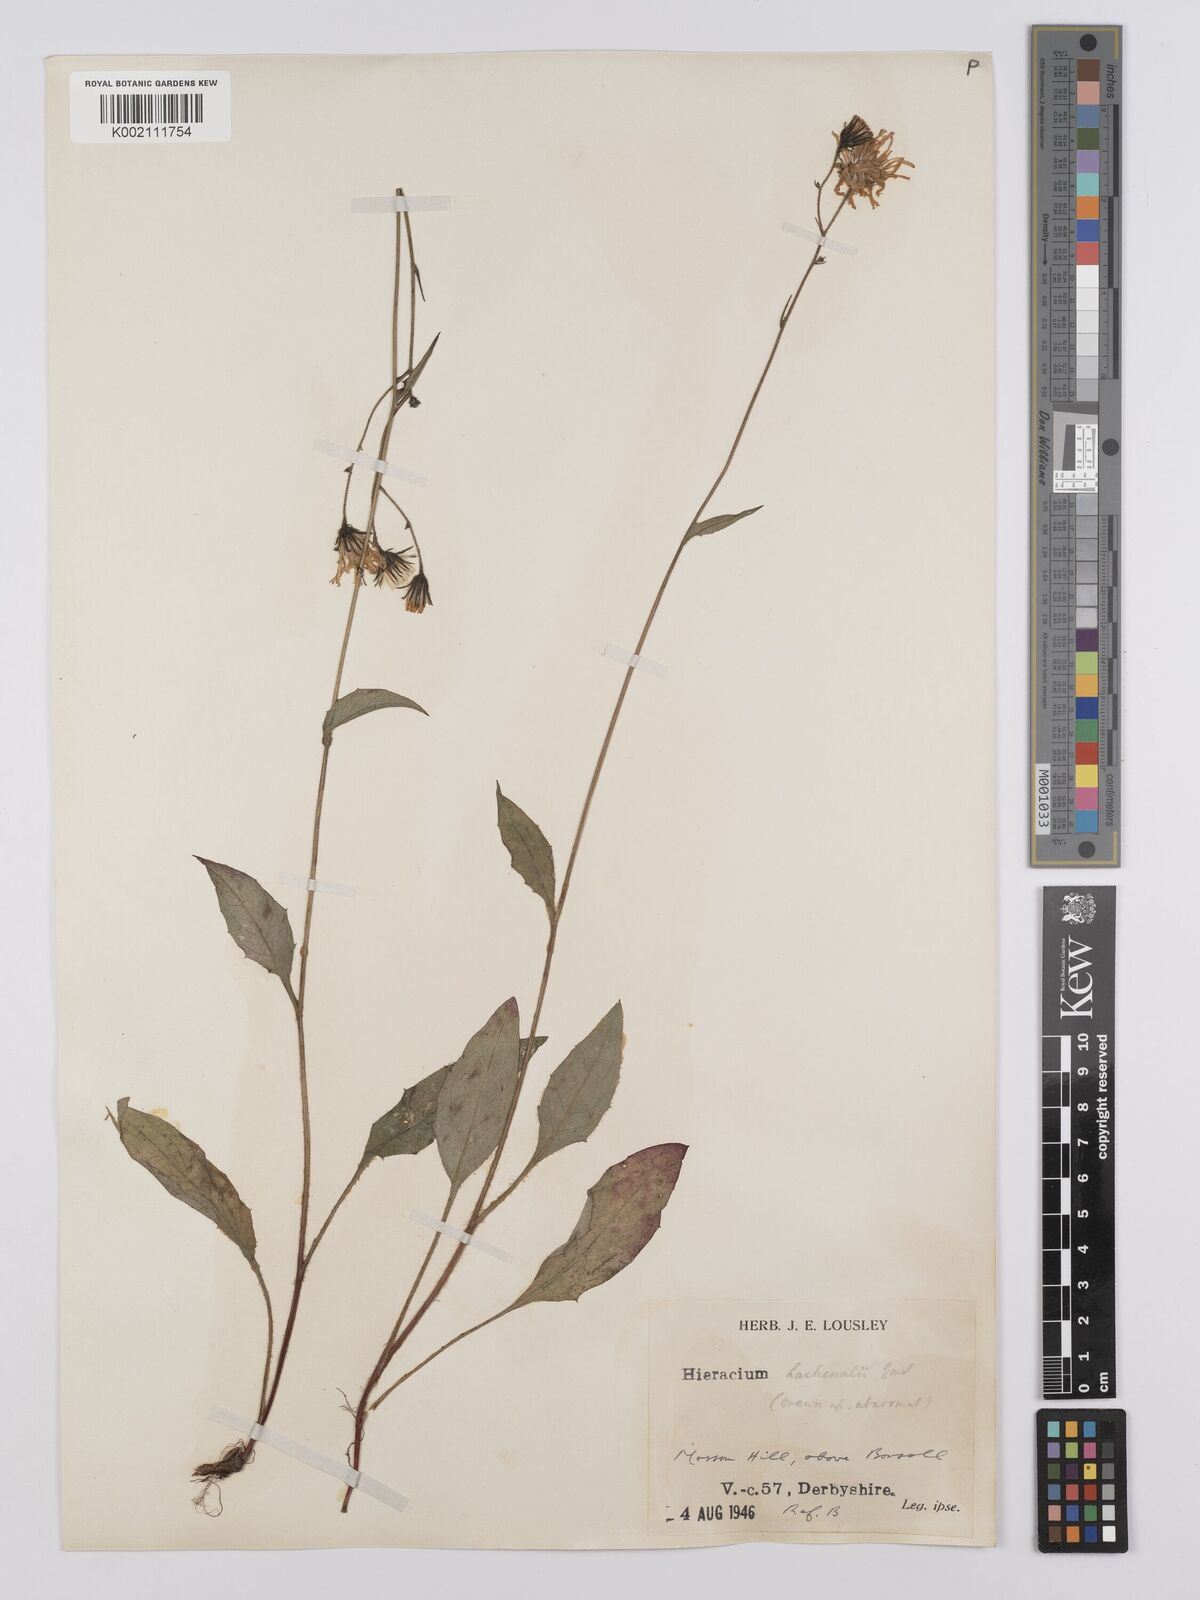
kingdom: Plantae
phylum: Tracheophyta
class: Magnoliopsida
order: Asterales
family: Asteraceae
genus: Hieracium
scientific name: Hieracium lachenalii
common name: Common hawkweed
